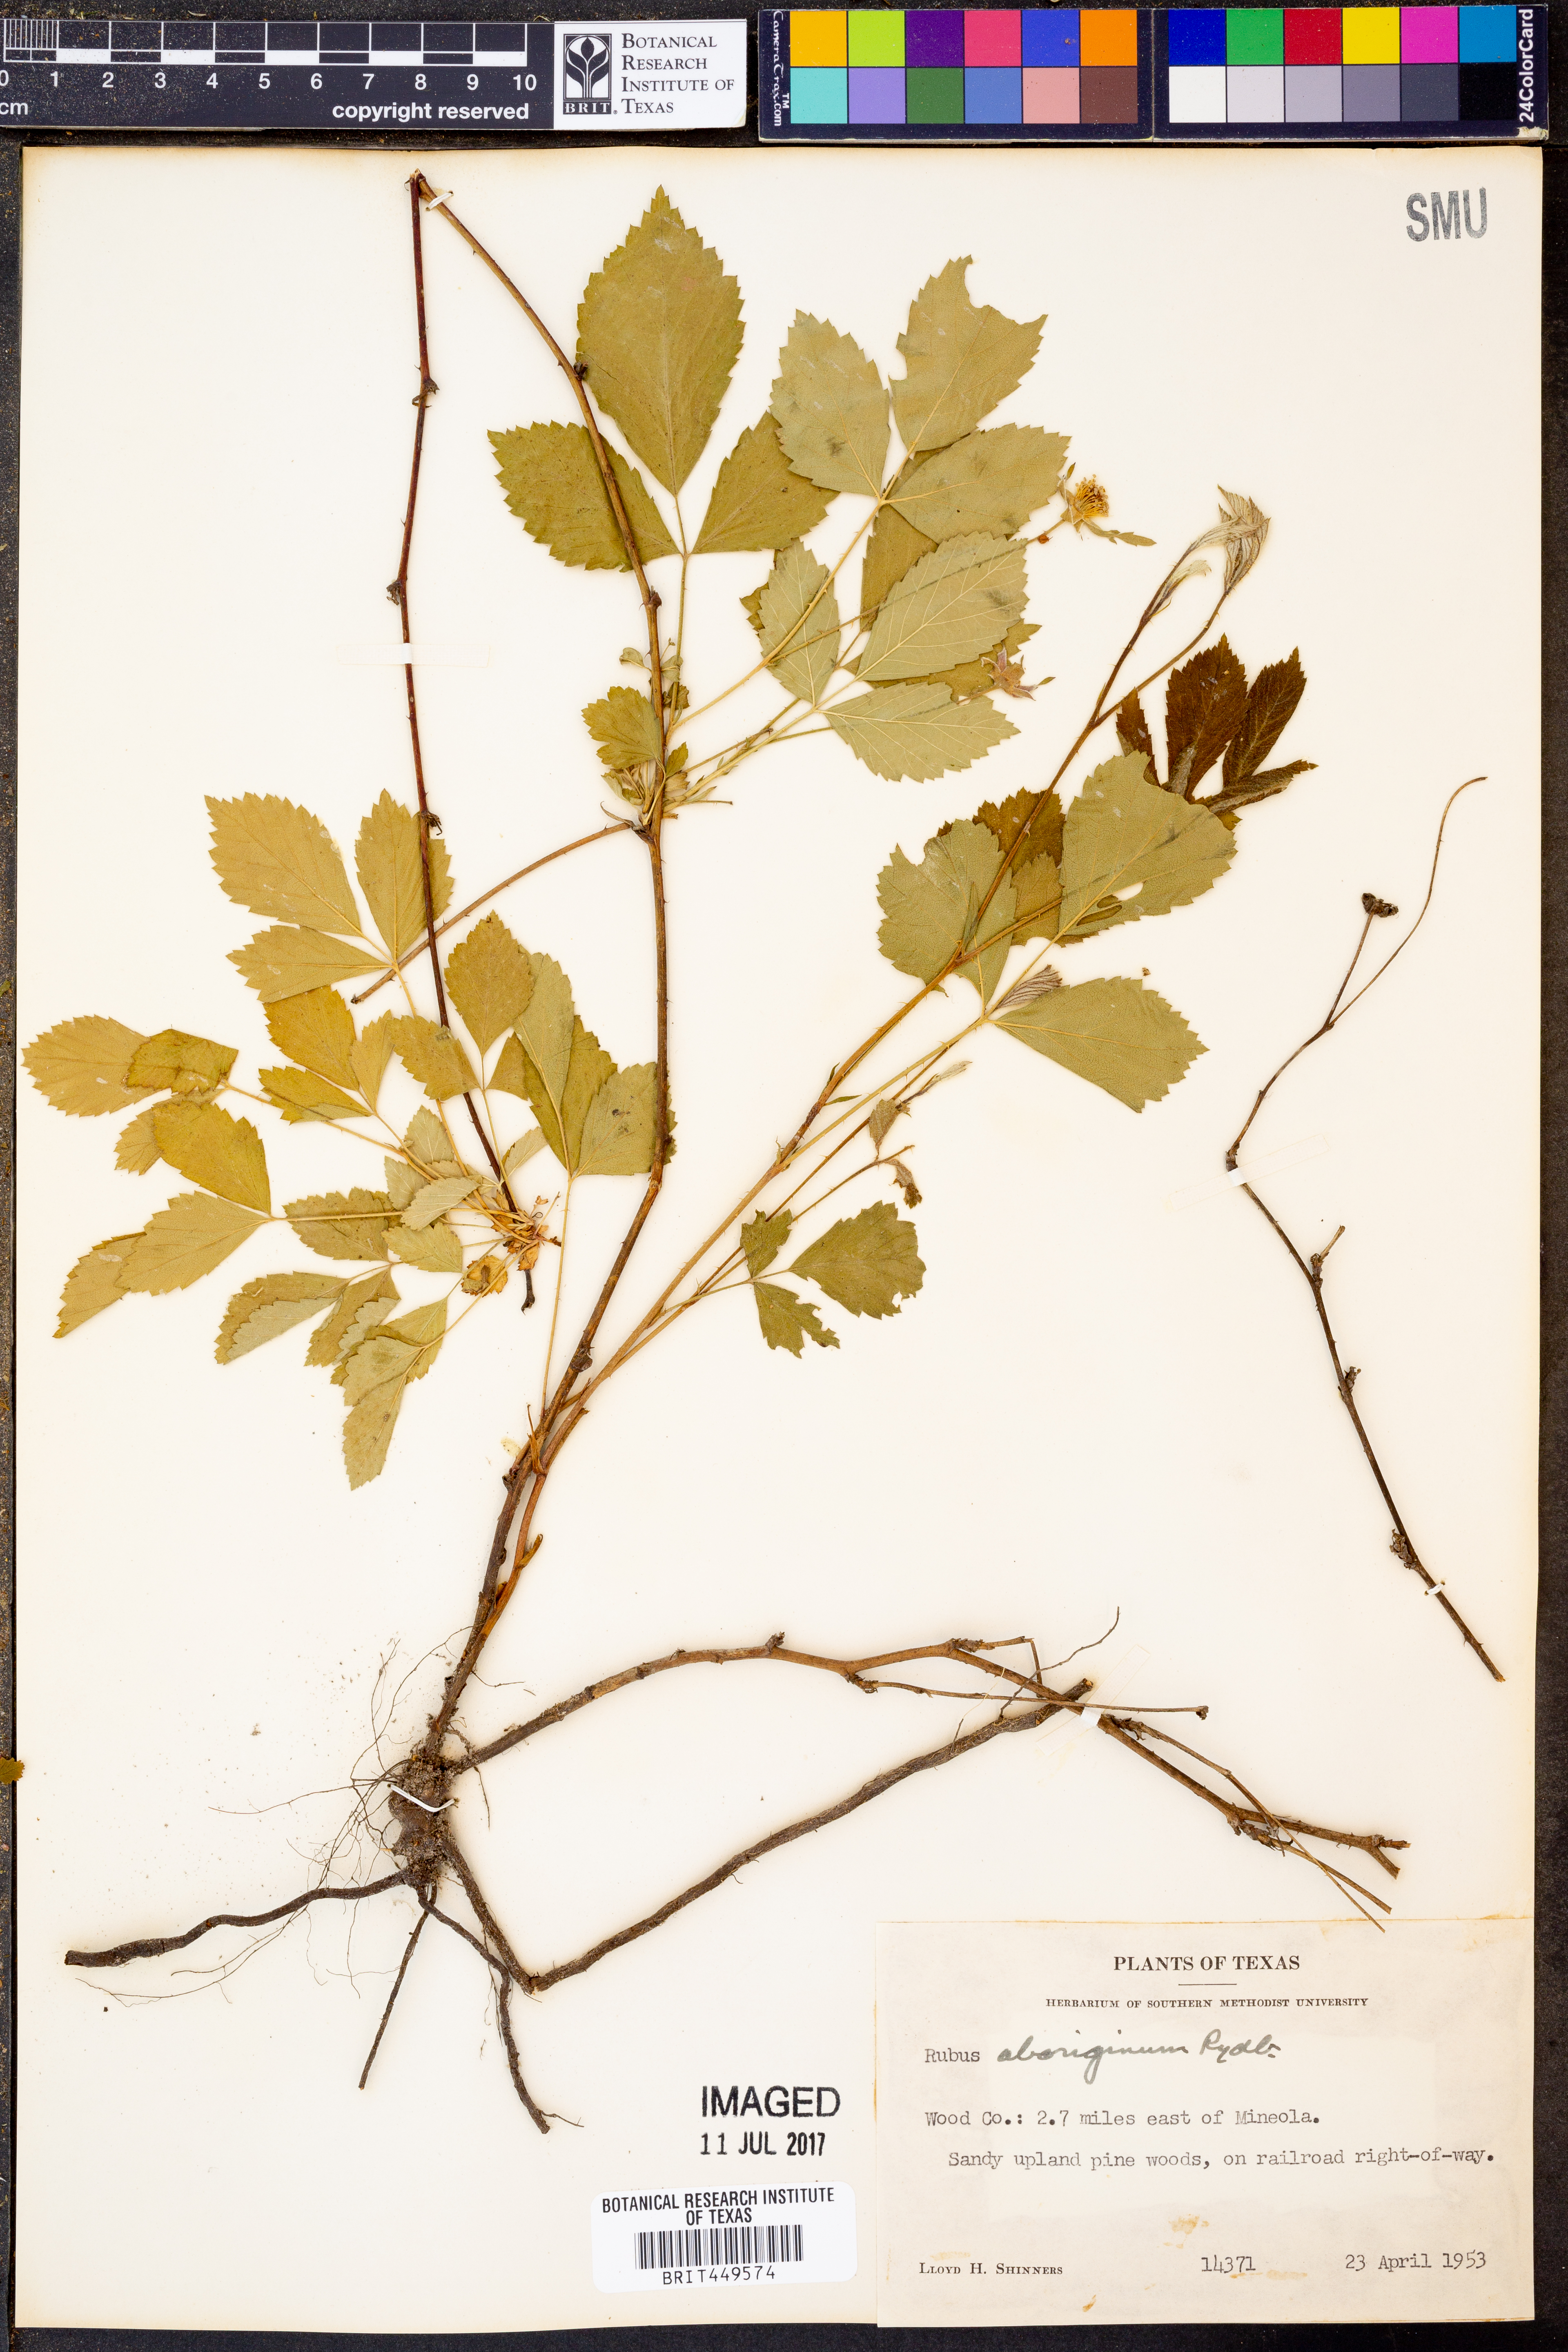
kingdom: Plantae
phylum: Tracheophyta
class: Magnoliopsida
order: Rosales
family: Rosaceae
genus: Rubus
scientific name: Rubus aboriginum
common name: Mayes dewberry
